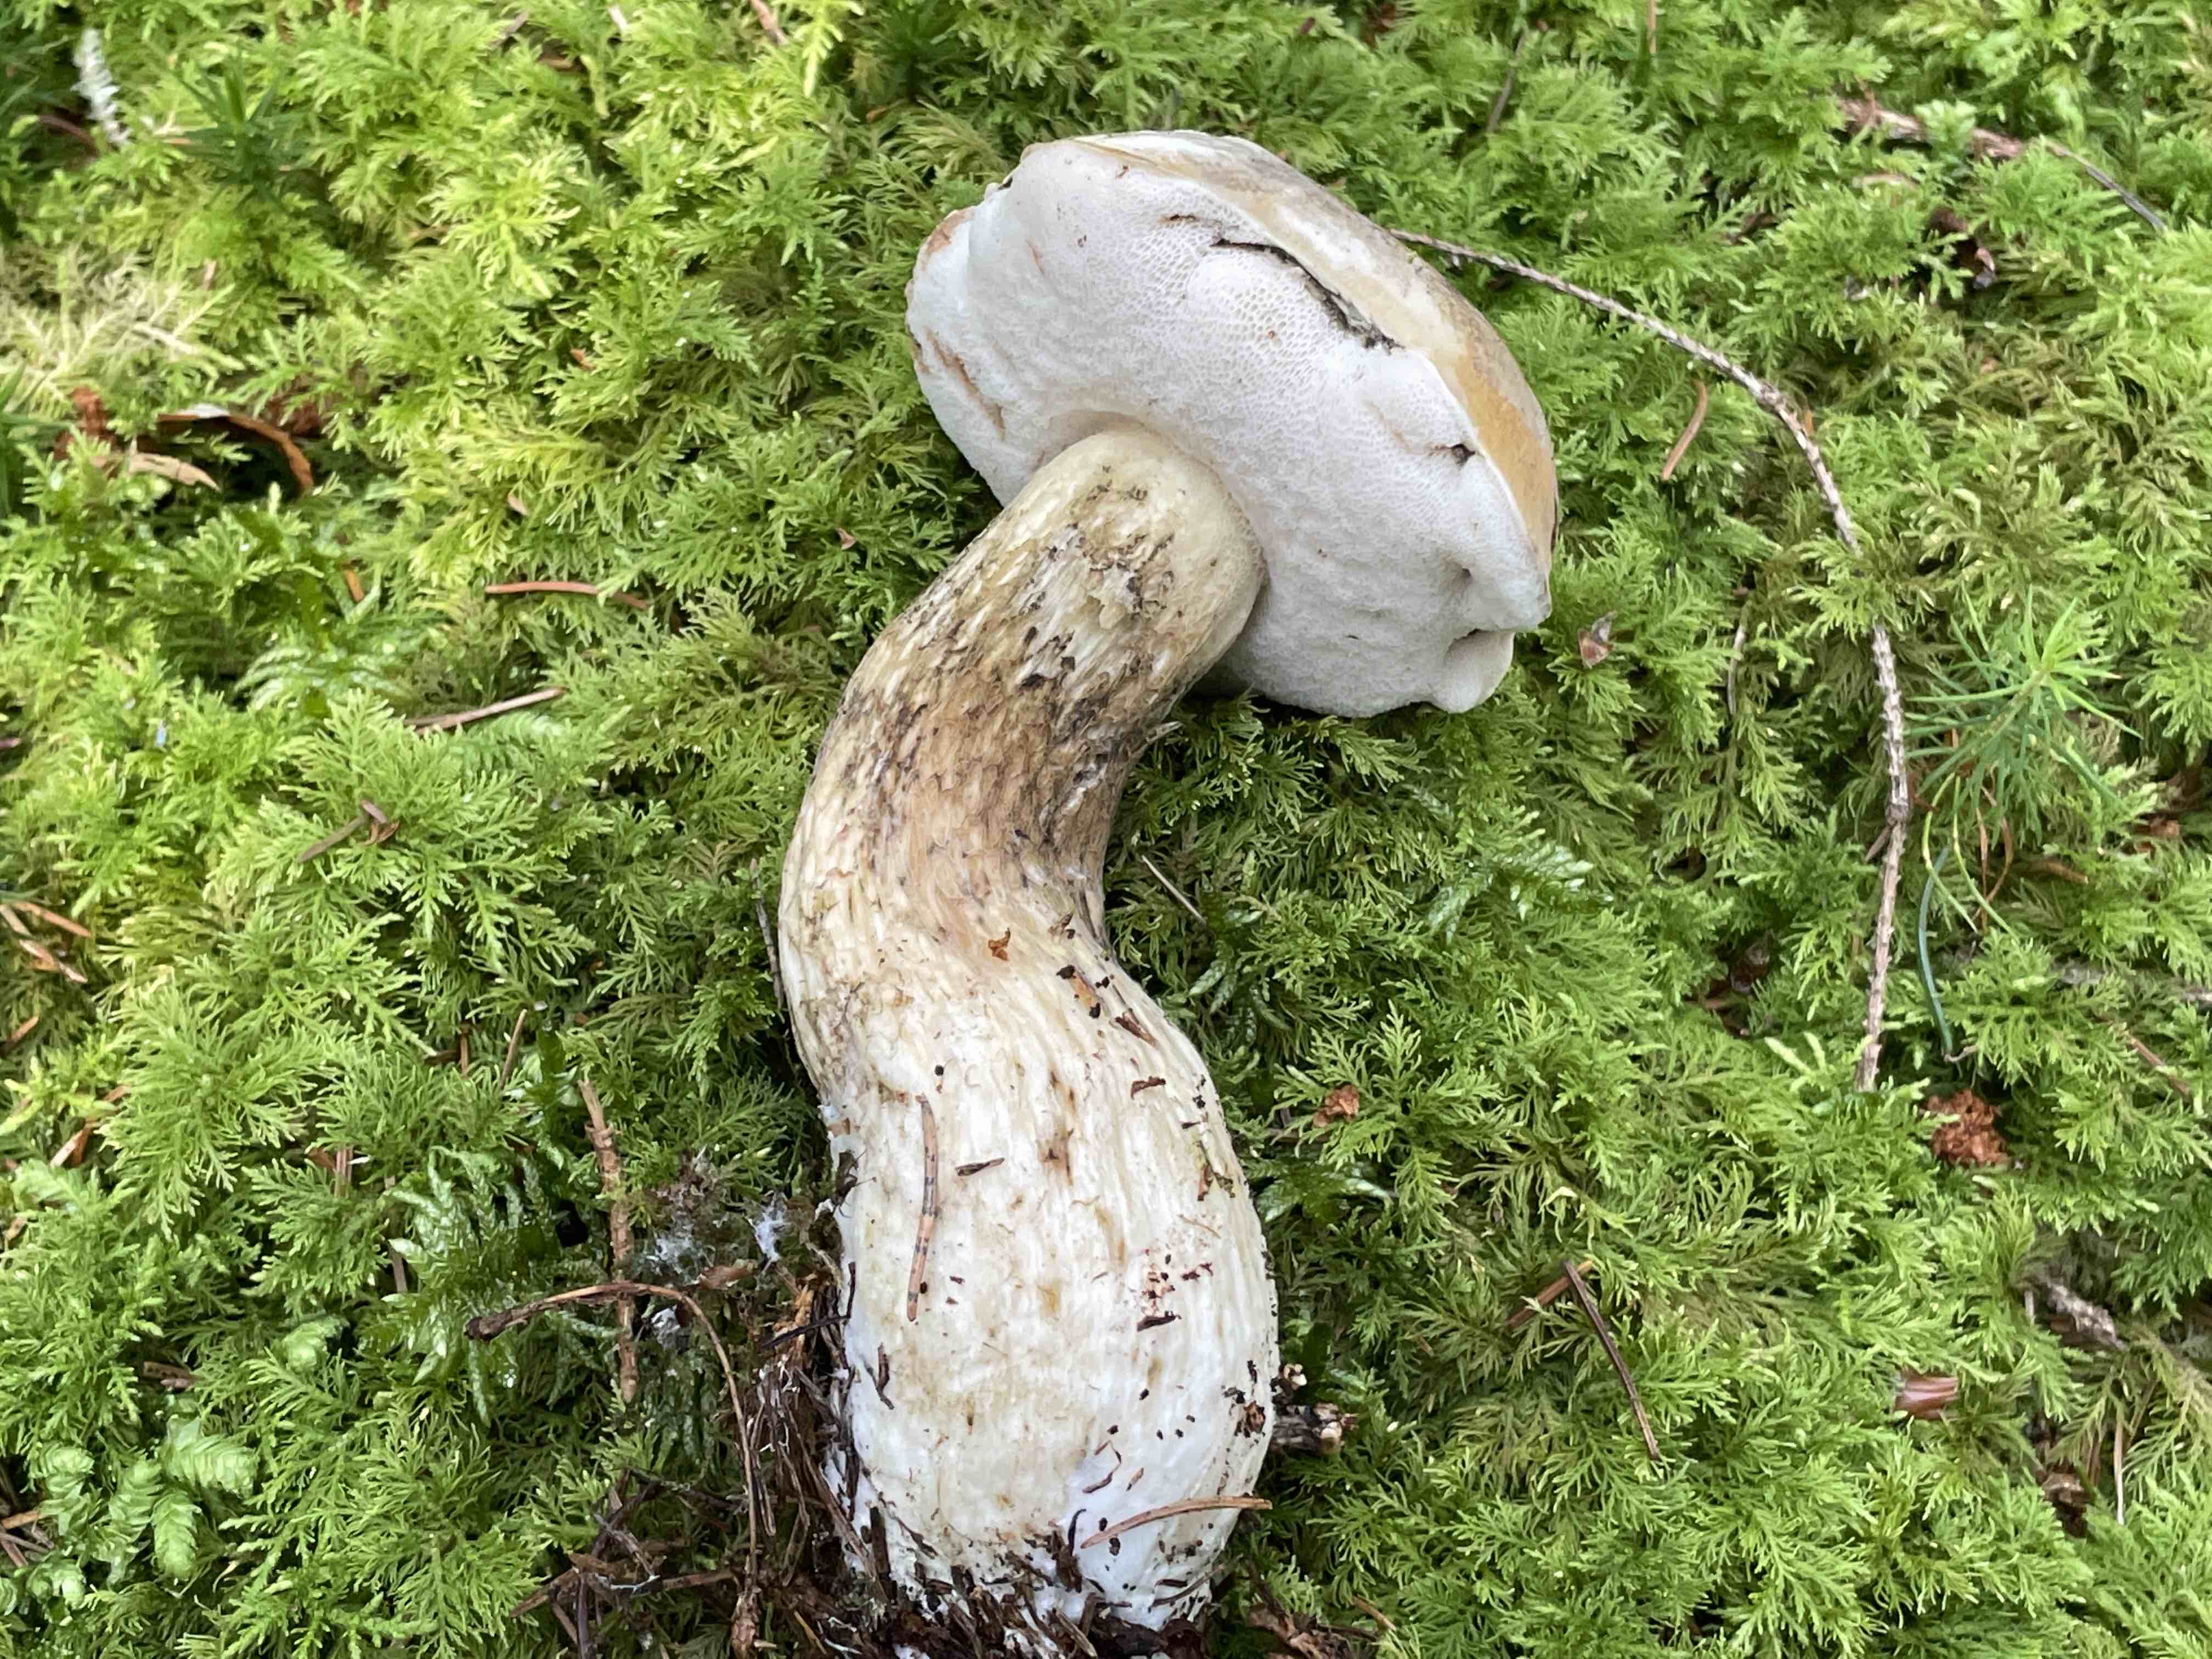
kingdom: Fungi
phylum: Basidiomycota
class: Agaricomycetes
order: Boletales
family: Boletaceae
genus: Tylopilus
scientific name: Tylopilus felleus
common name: galderørhat
